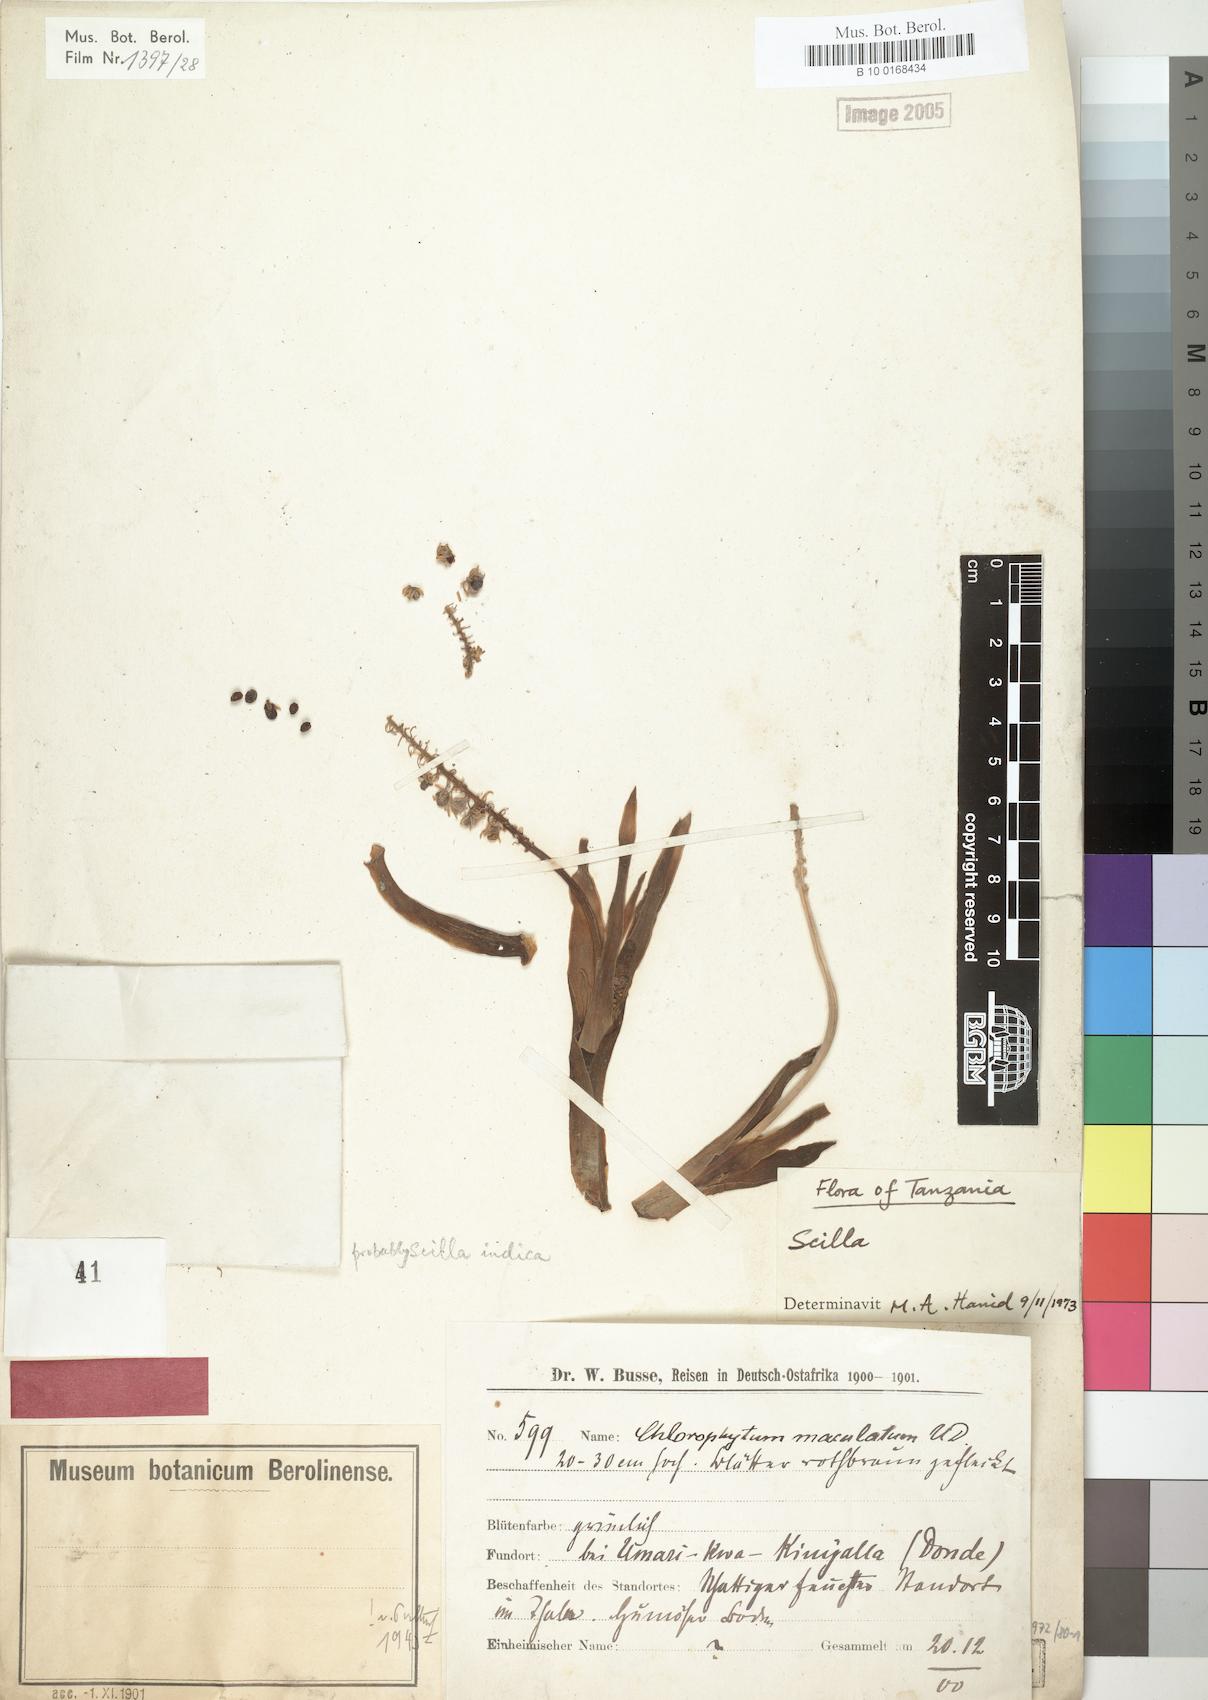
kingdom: Plantae
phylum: Tracheophyta
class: Liliopsida
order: Liliales
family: Liliaceae
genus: Skilla
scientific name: Skilla
